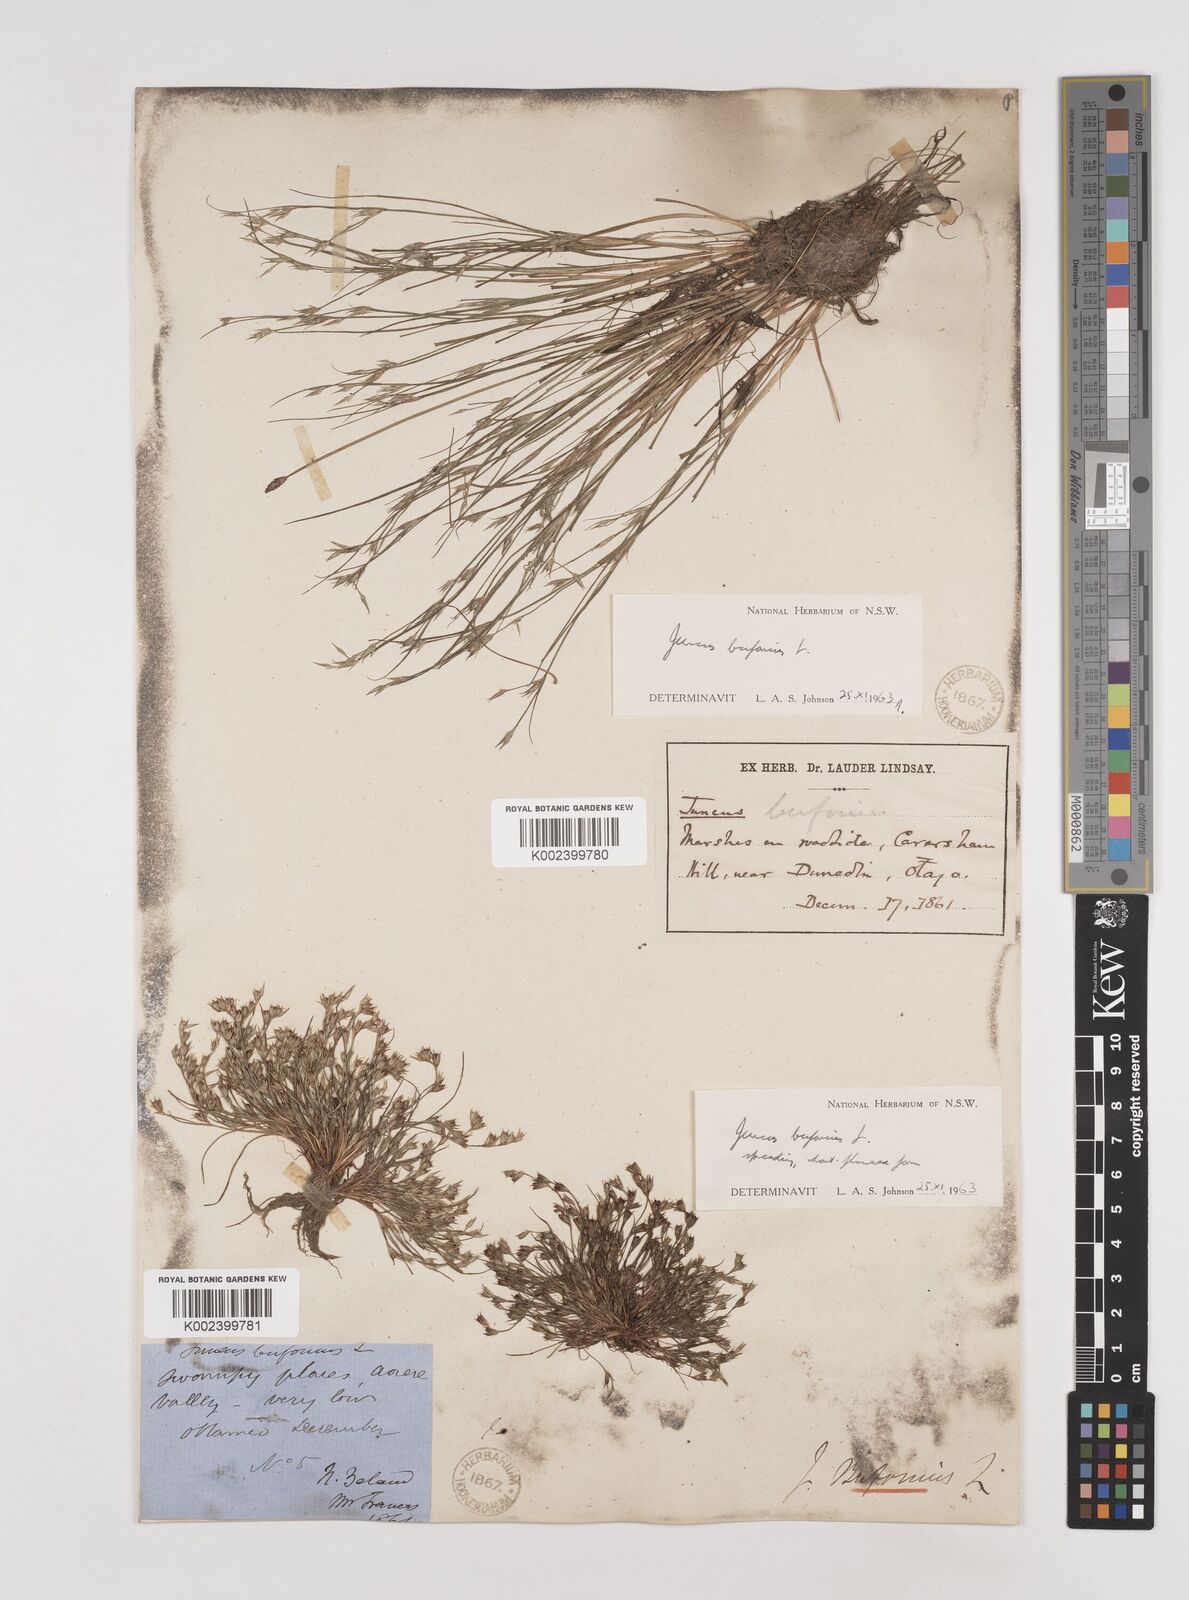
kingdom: Plantae
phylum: Tracheophyta
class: Liliopsida
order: Poales
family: Juncaceae
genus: Juncus
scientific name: Juncus bufonius
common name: Toad rush
